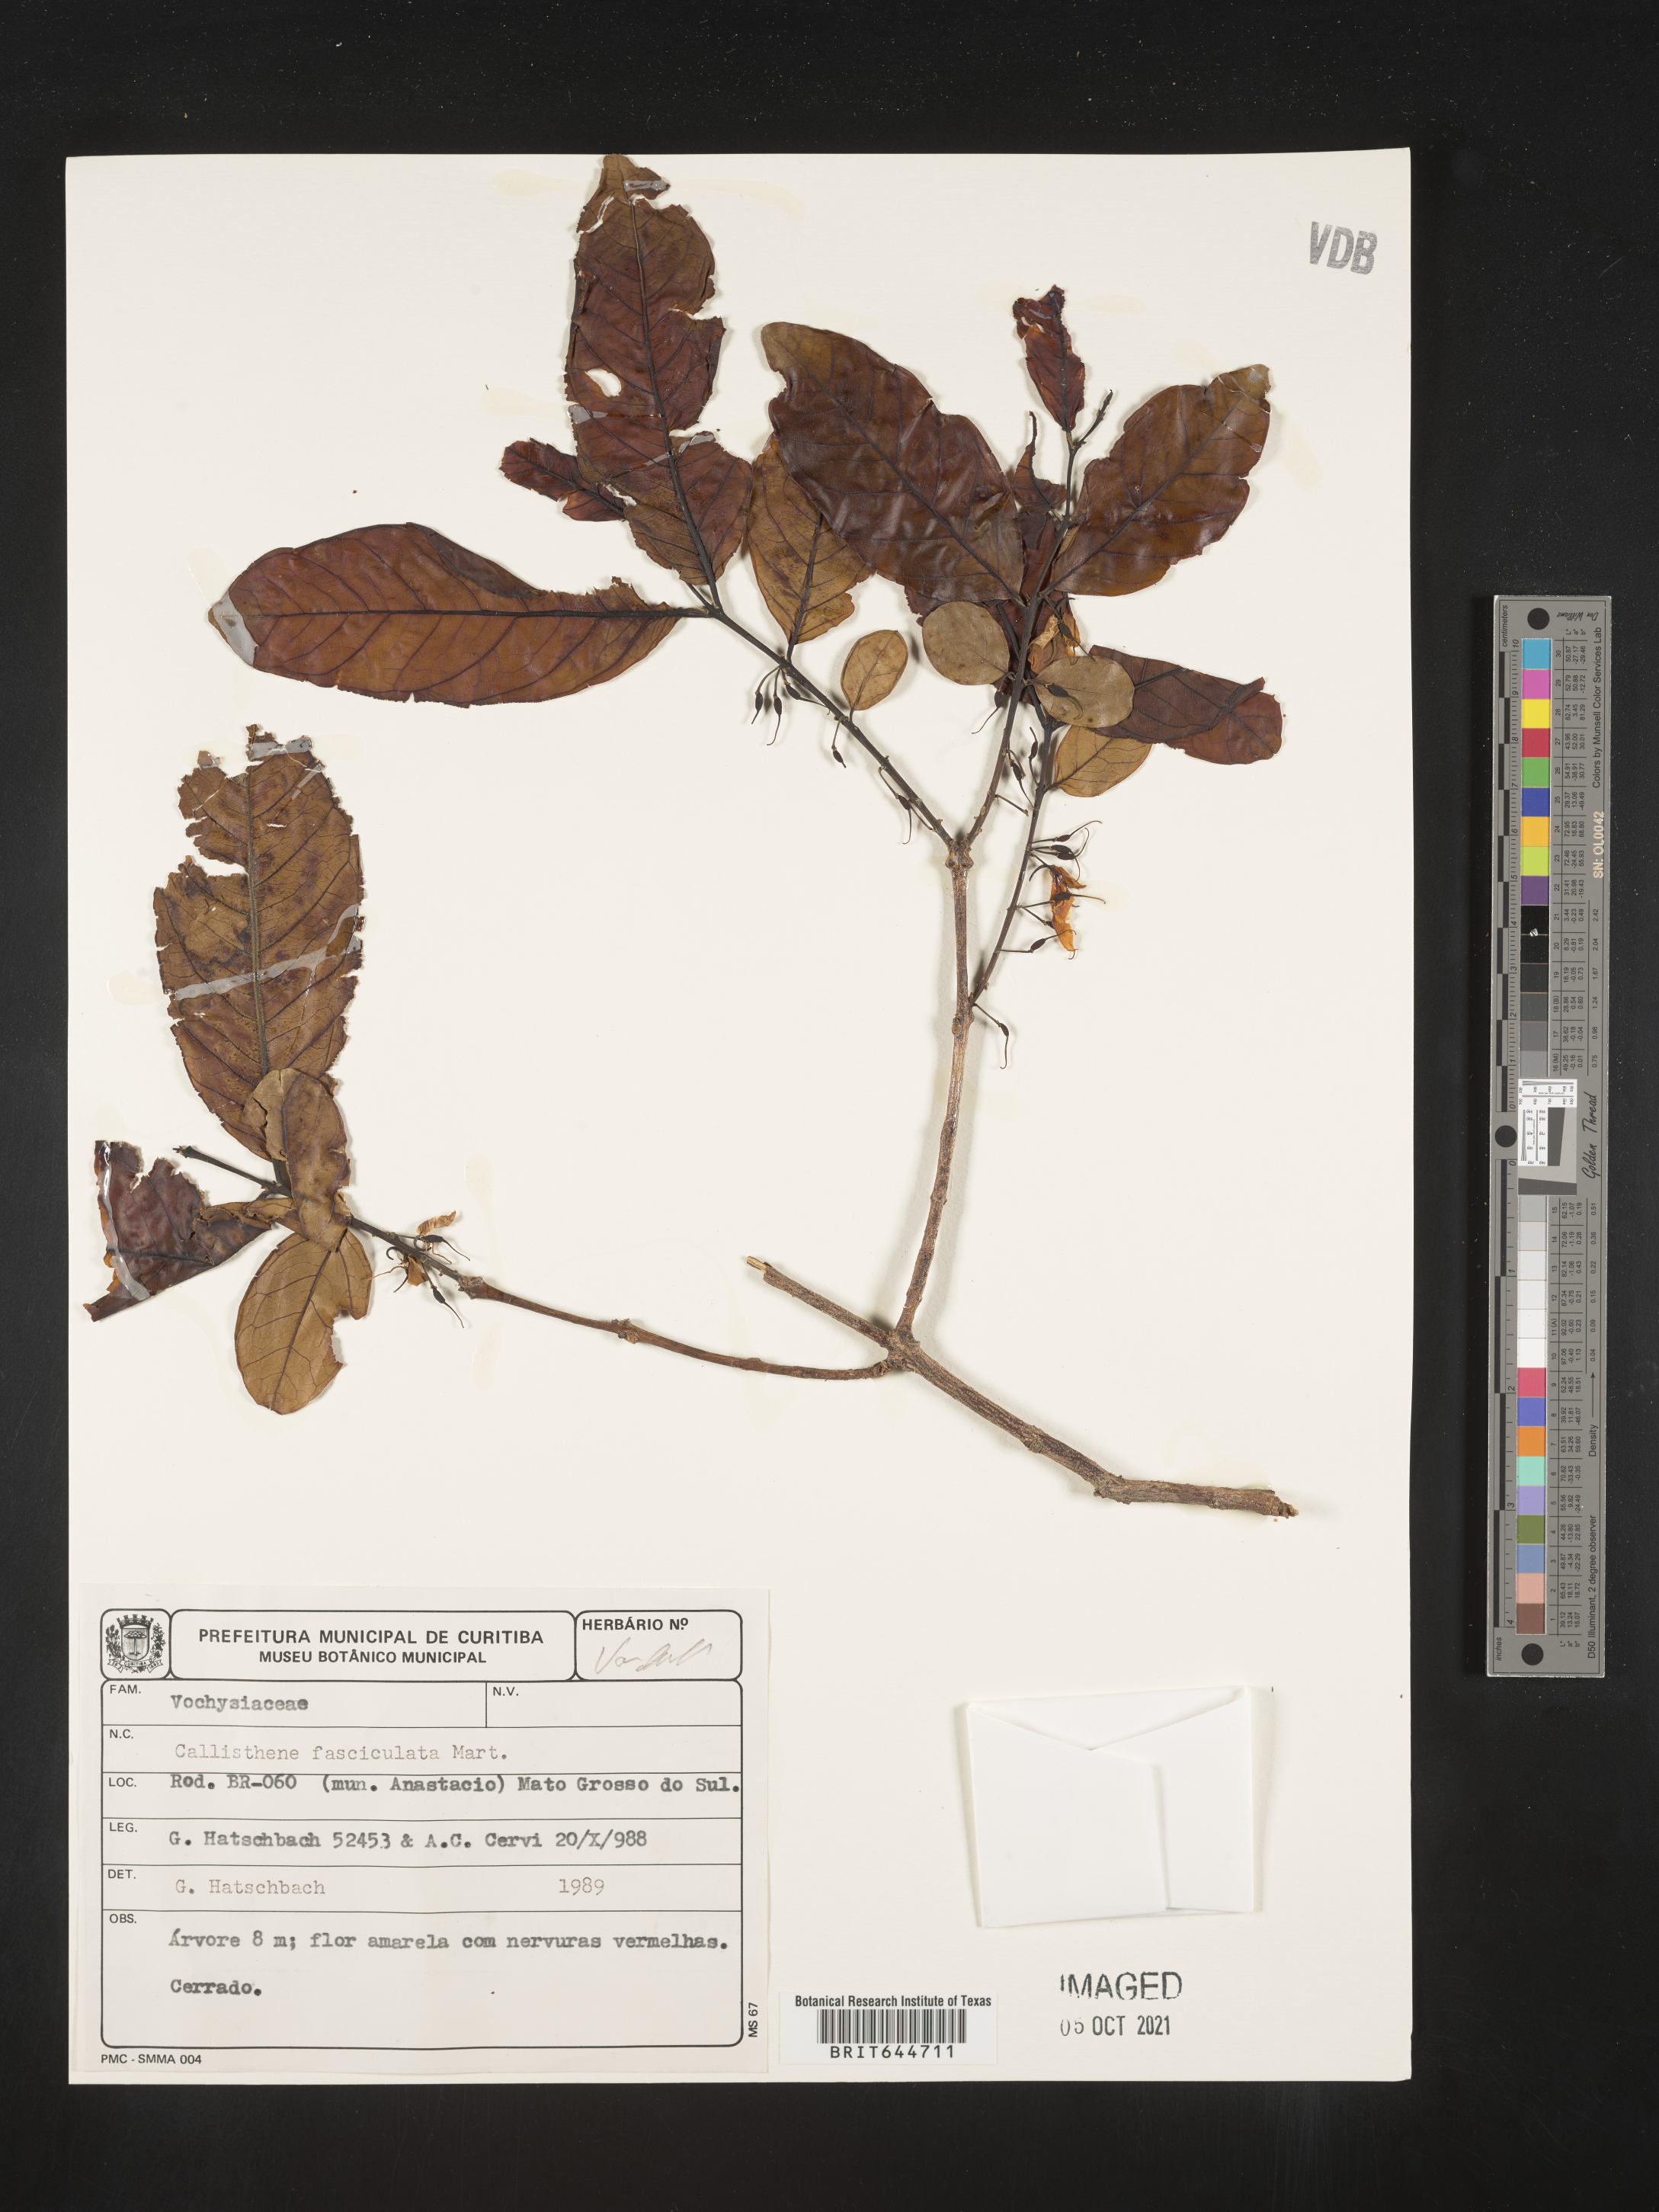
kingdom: Plantae
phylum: Tracheophyta
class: Magnoliopsida
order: Myrtales
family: Vochysiaceae
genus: Callisthene
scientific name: Callisthene
